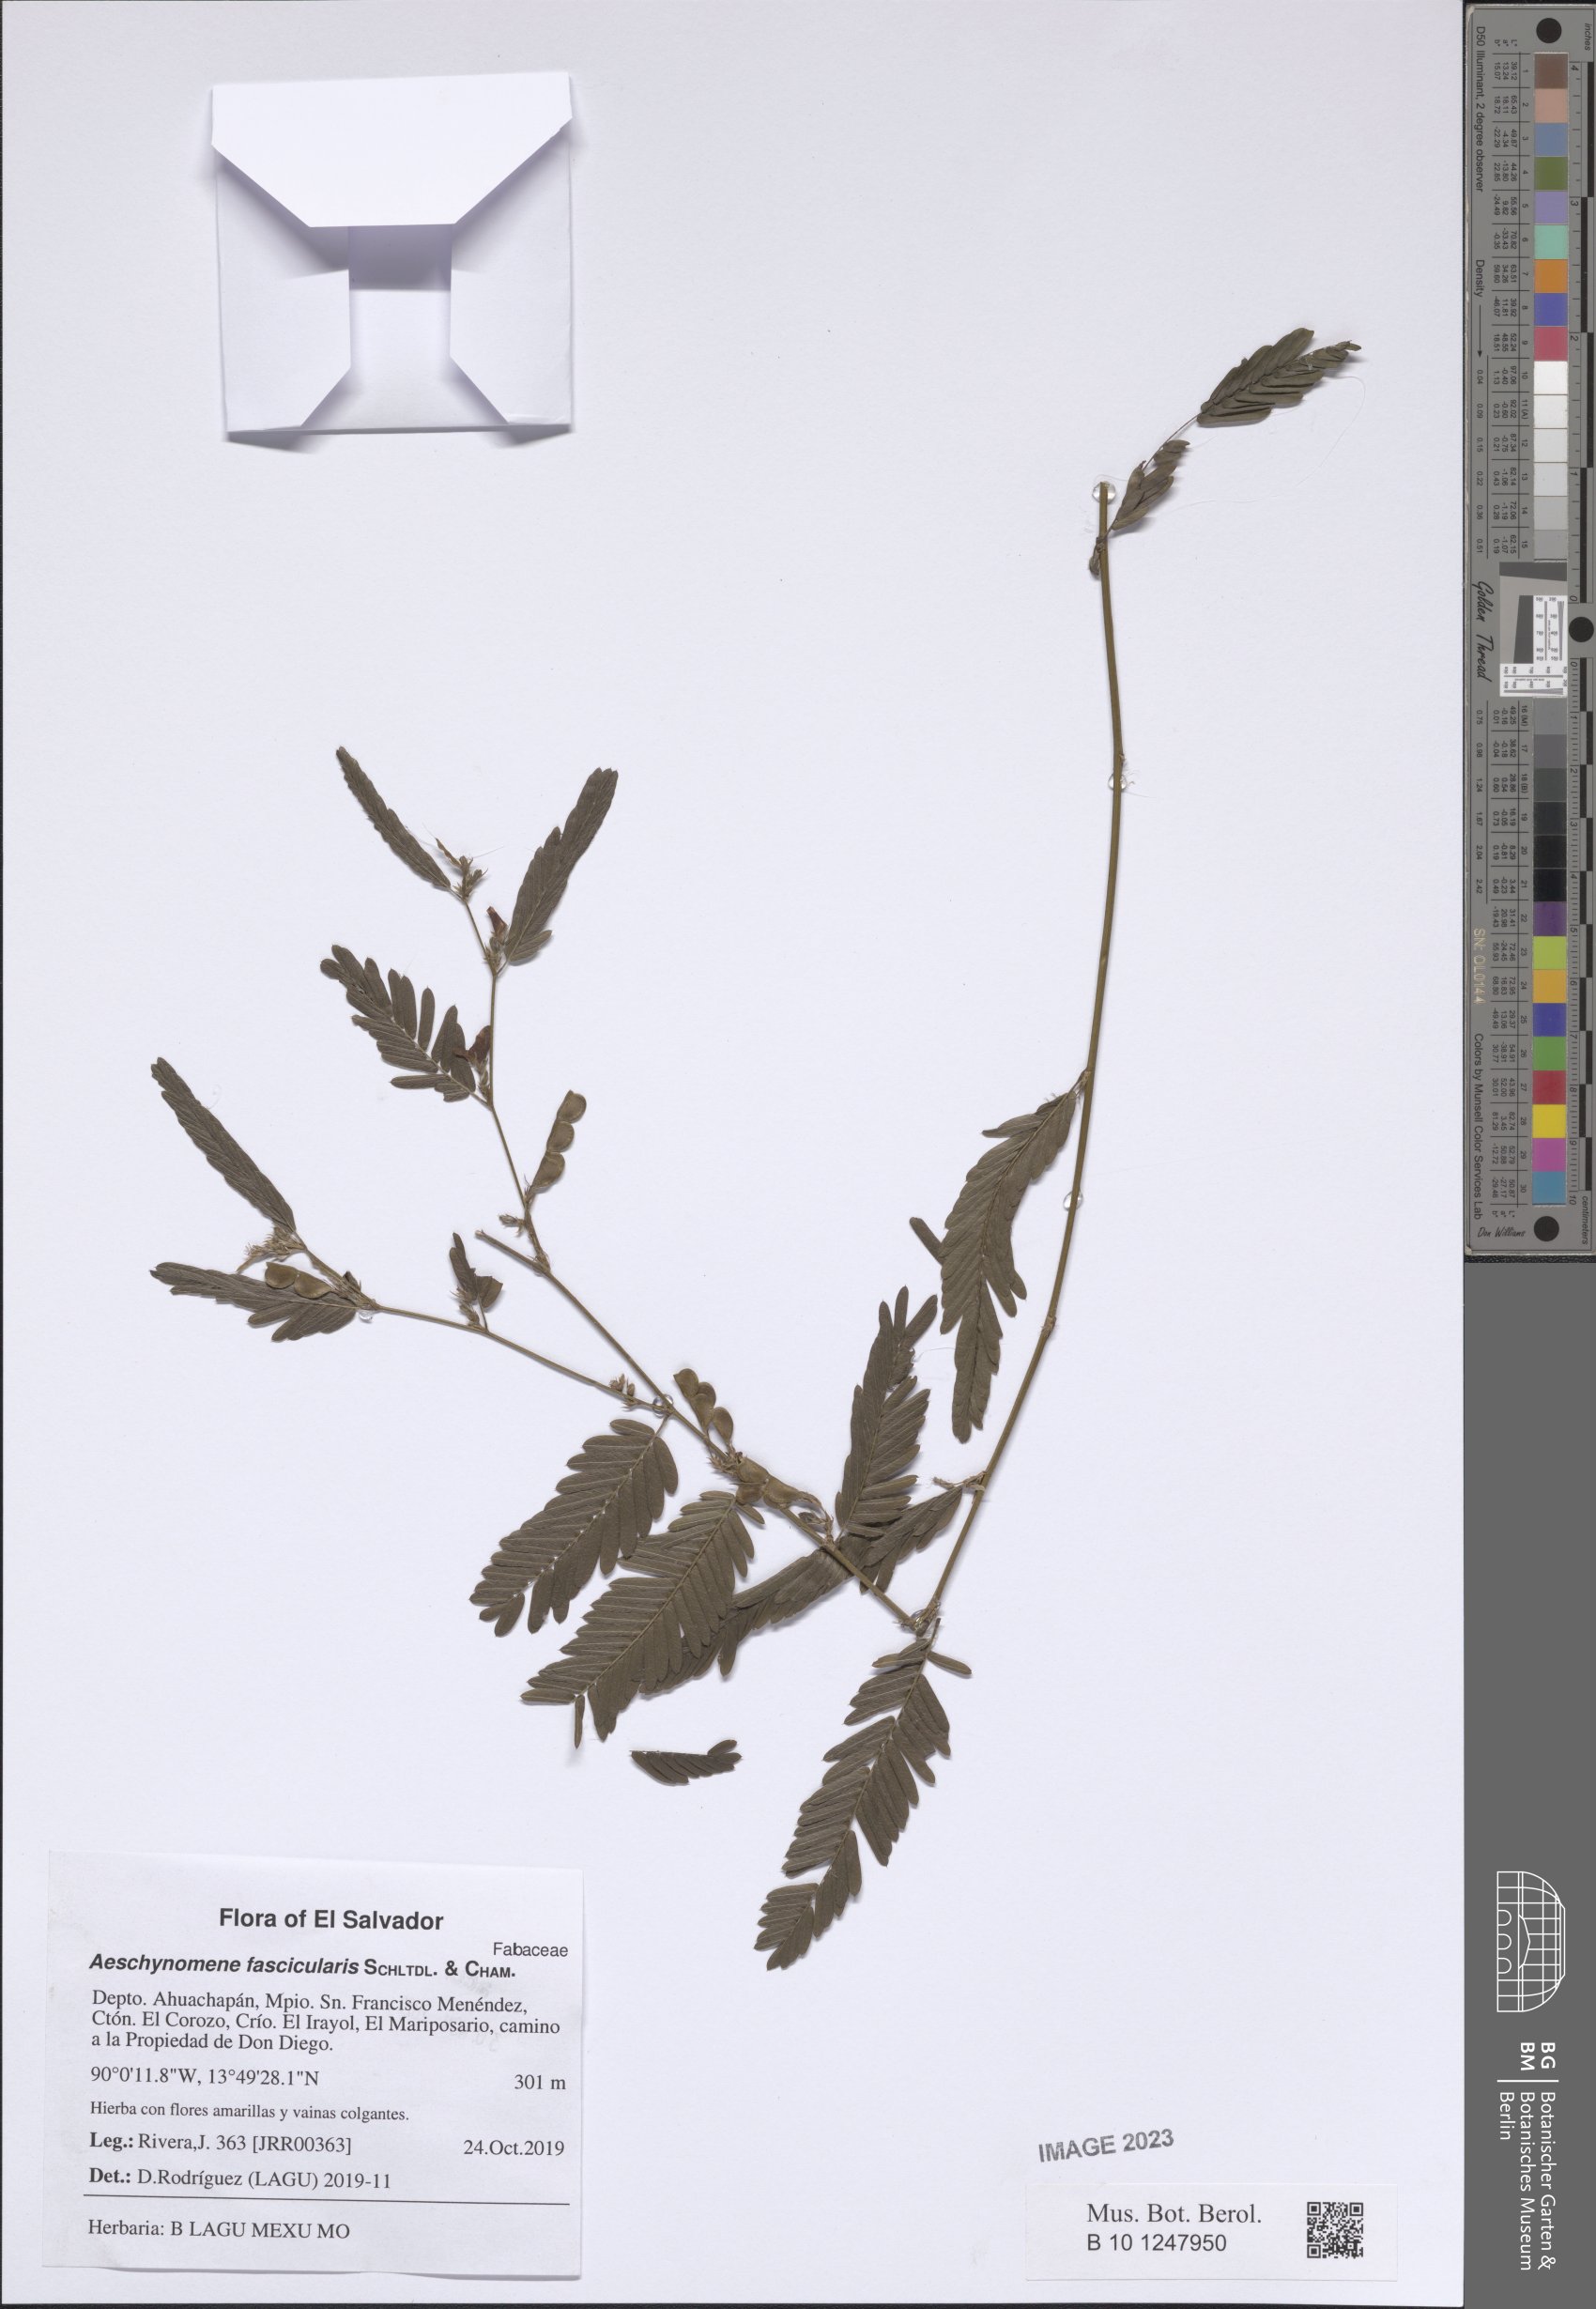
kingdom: Plantae
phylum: Tracheophyta
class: Magnoliopsida
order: Fabales
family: Fabaceae
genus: Ctenodon
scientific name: Ctenodon fascicularis
